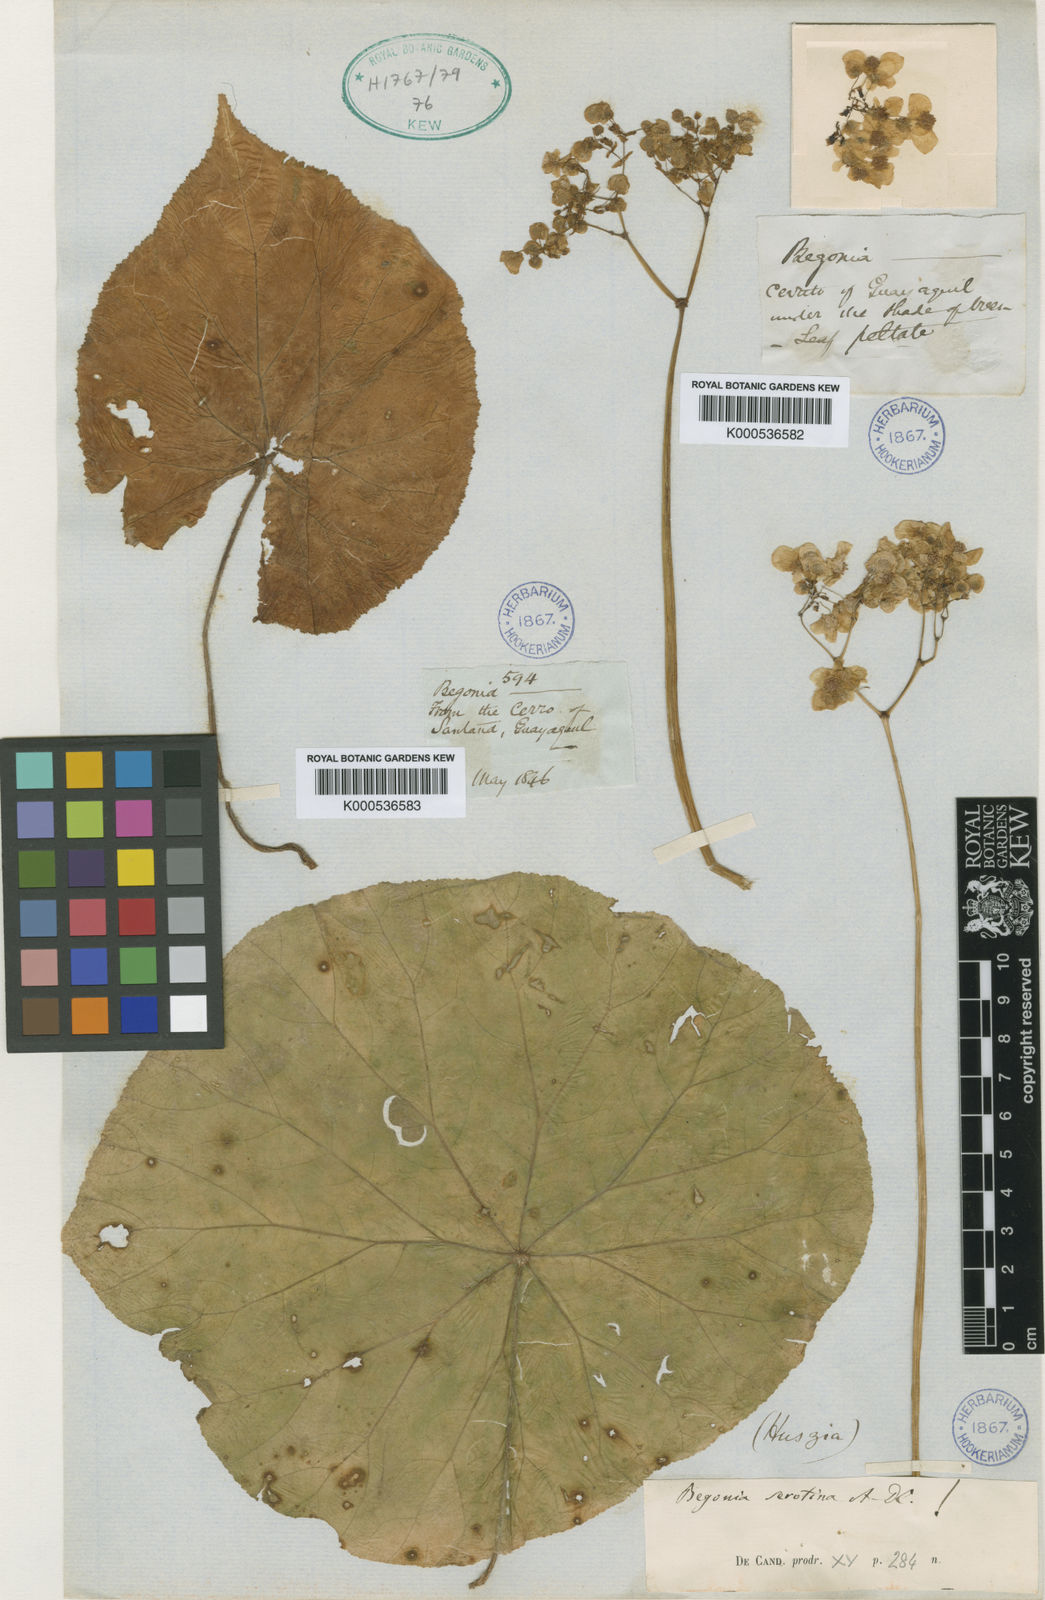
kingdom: Plantae
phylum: Tracheophyta
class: Magnoliopsida
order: Cucurbitales
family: Begoniaceae
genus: Begonia
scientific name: Begonia serotina
